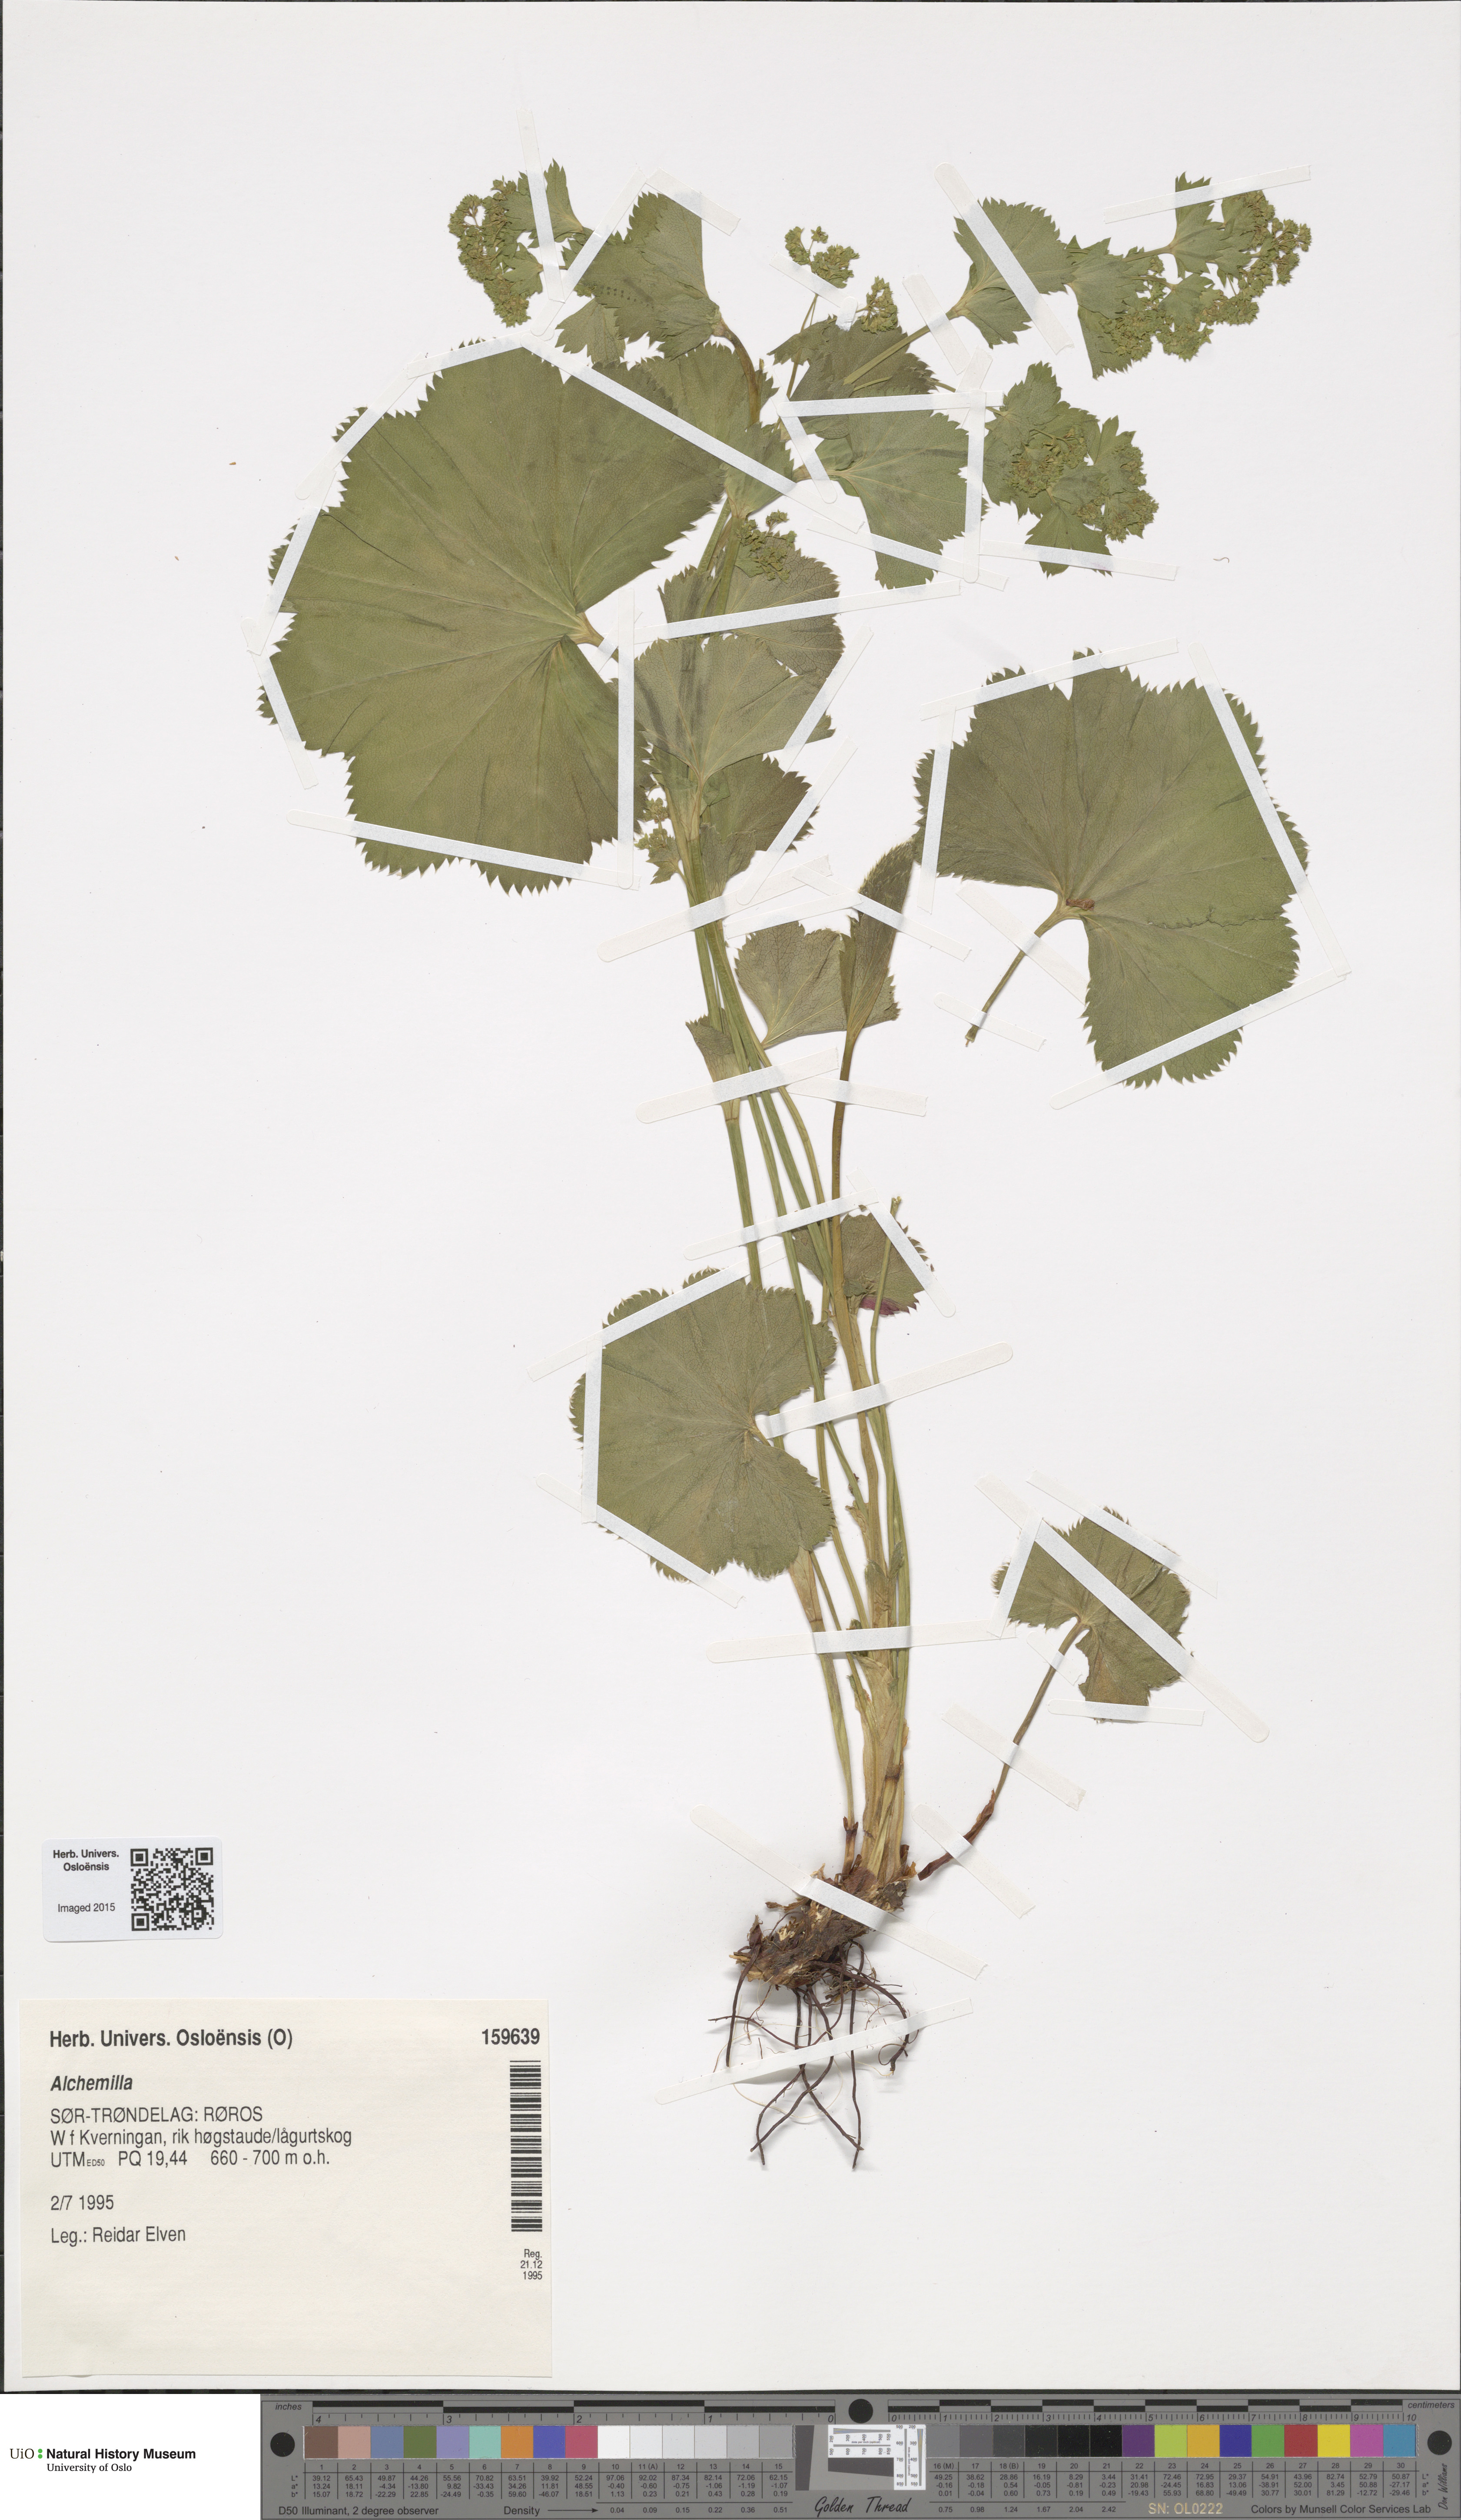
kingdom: Plantae
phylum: Tracheophyta
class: Magnoliopsida
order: Rosales
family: Rosaceae
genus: Alchemilla
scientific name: Alchemilla
